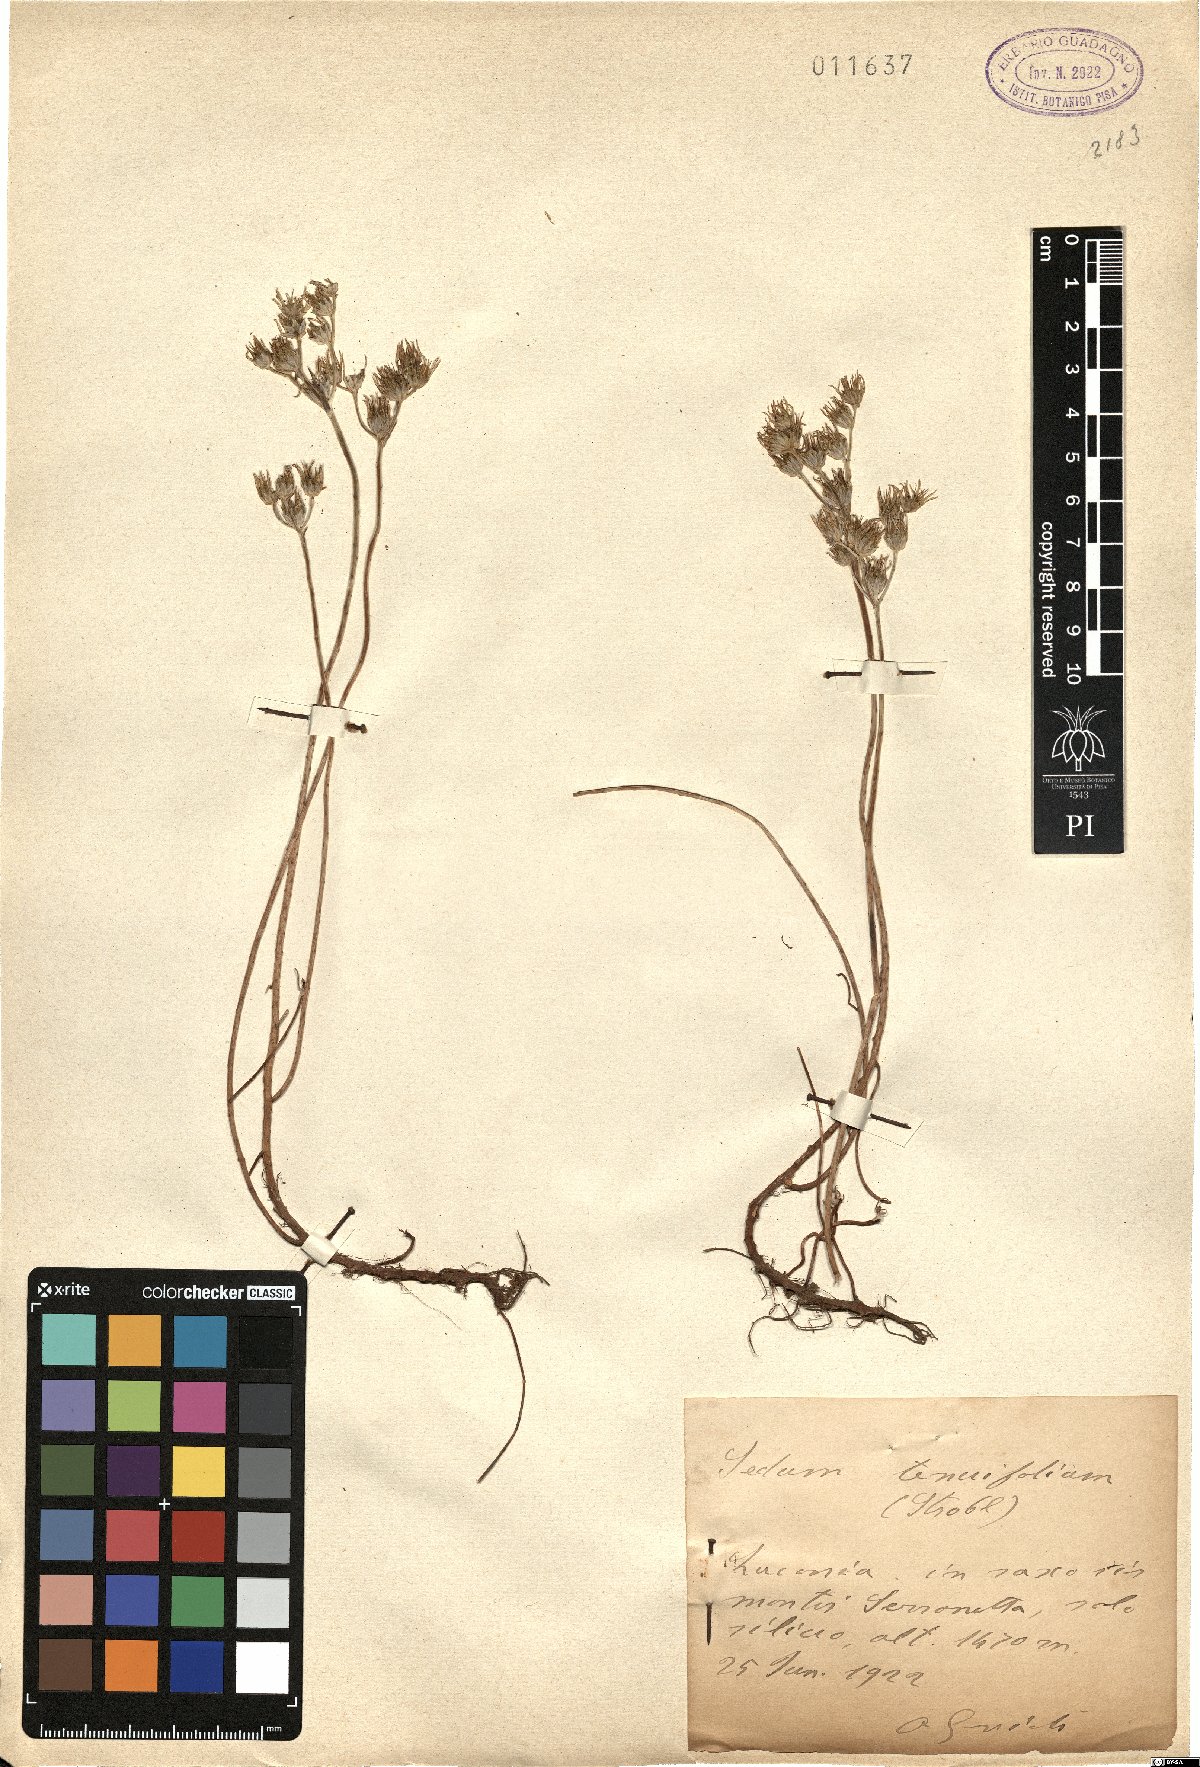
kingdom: Plantae
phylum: Tracheophyta
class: Magnoliopsida
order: Saxifragales
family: Crassulaceae
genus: Petrosedum
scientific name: Petrosedum tenuifolium
